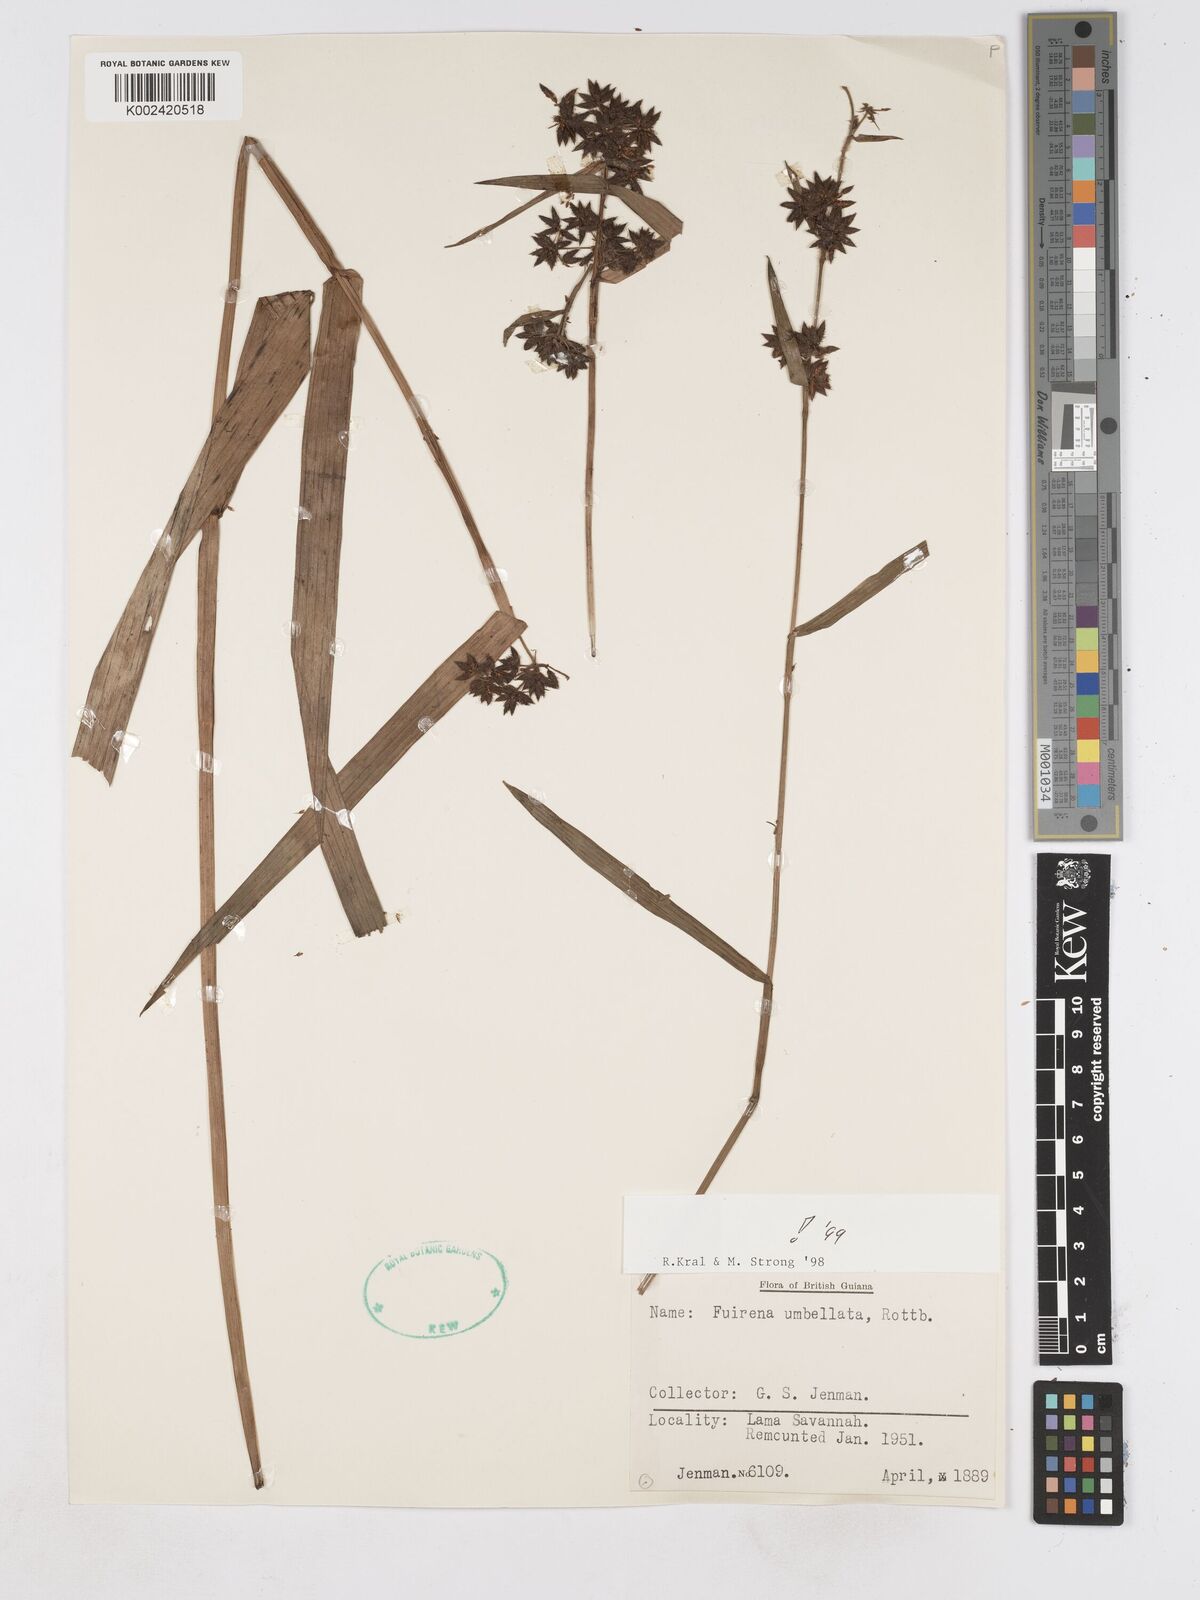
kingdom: Plantae
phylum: Tracheophyta
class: Liliopsida
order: Poales
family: Cyperaceae
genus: Fuirena
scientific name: Fuirena umbellata
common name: Yefen
